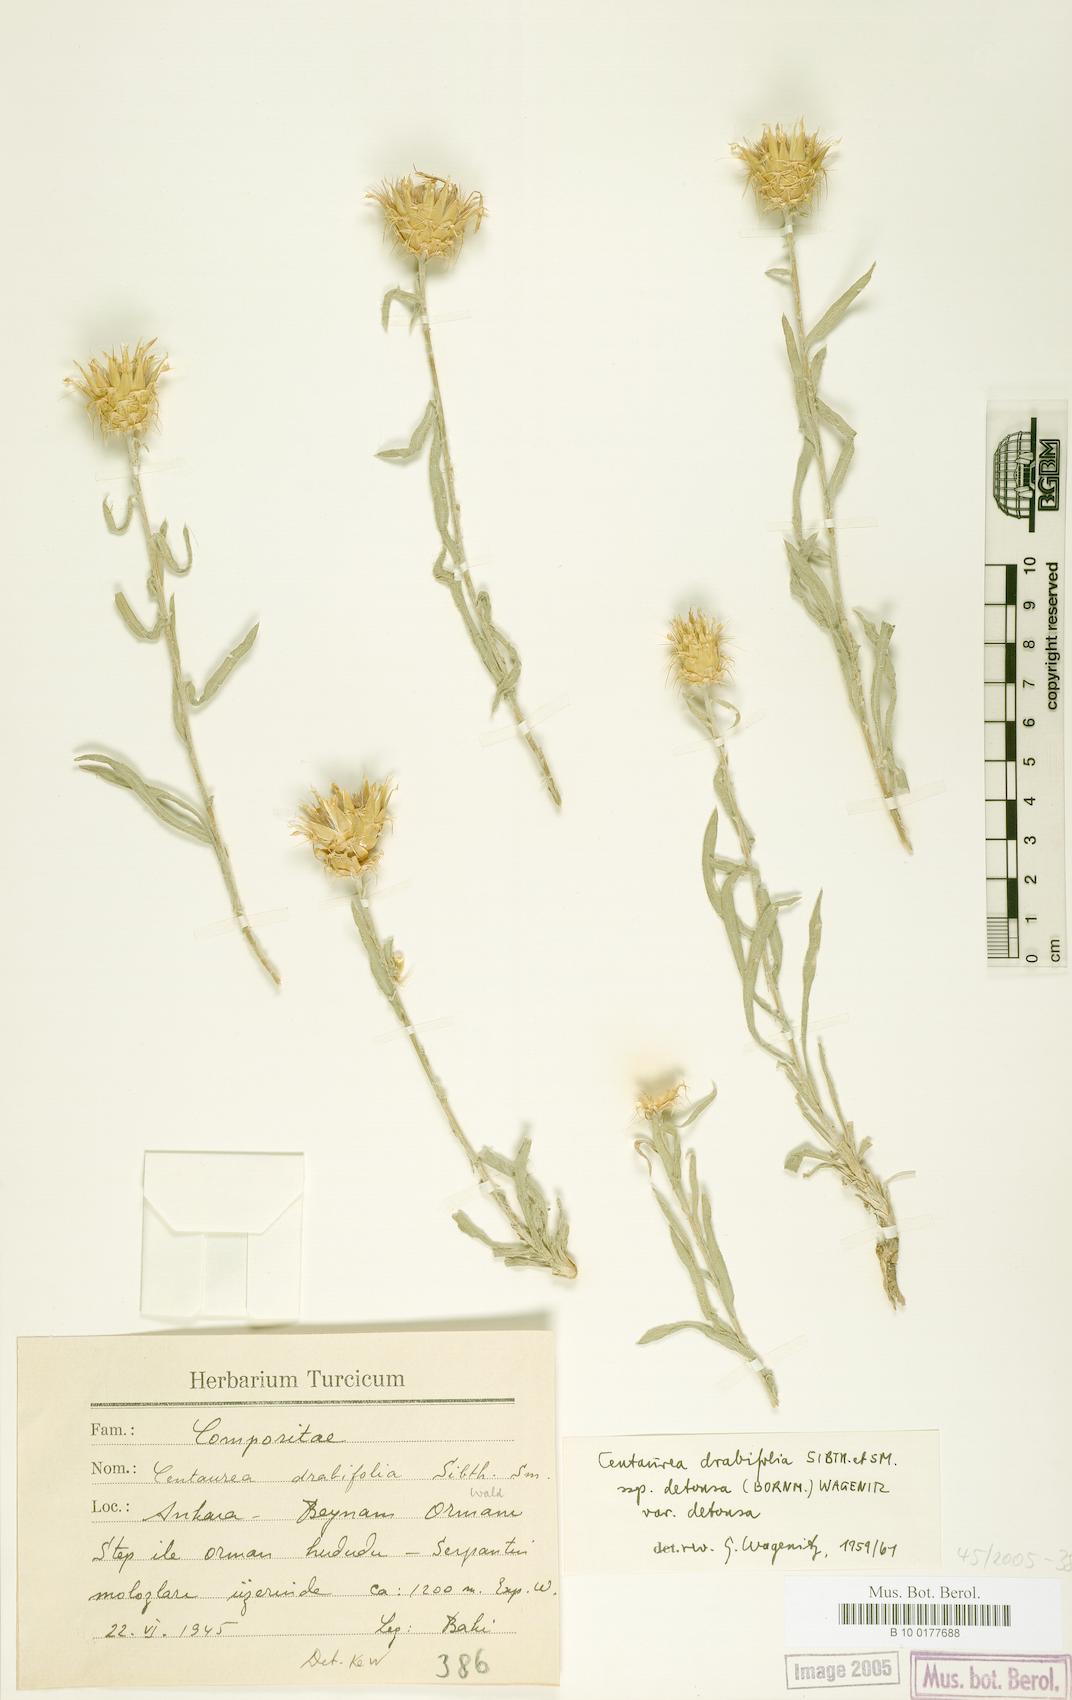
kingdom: Plantae
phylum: Tracheophyta
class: Magnoliopsida
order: Asterales
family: Asteraceae
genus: Centaurea
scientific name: Centaurea kotschyi
